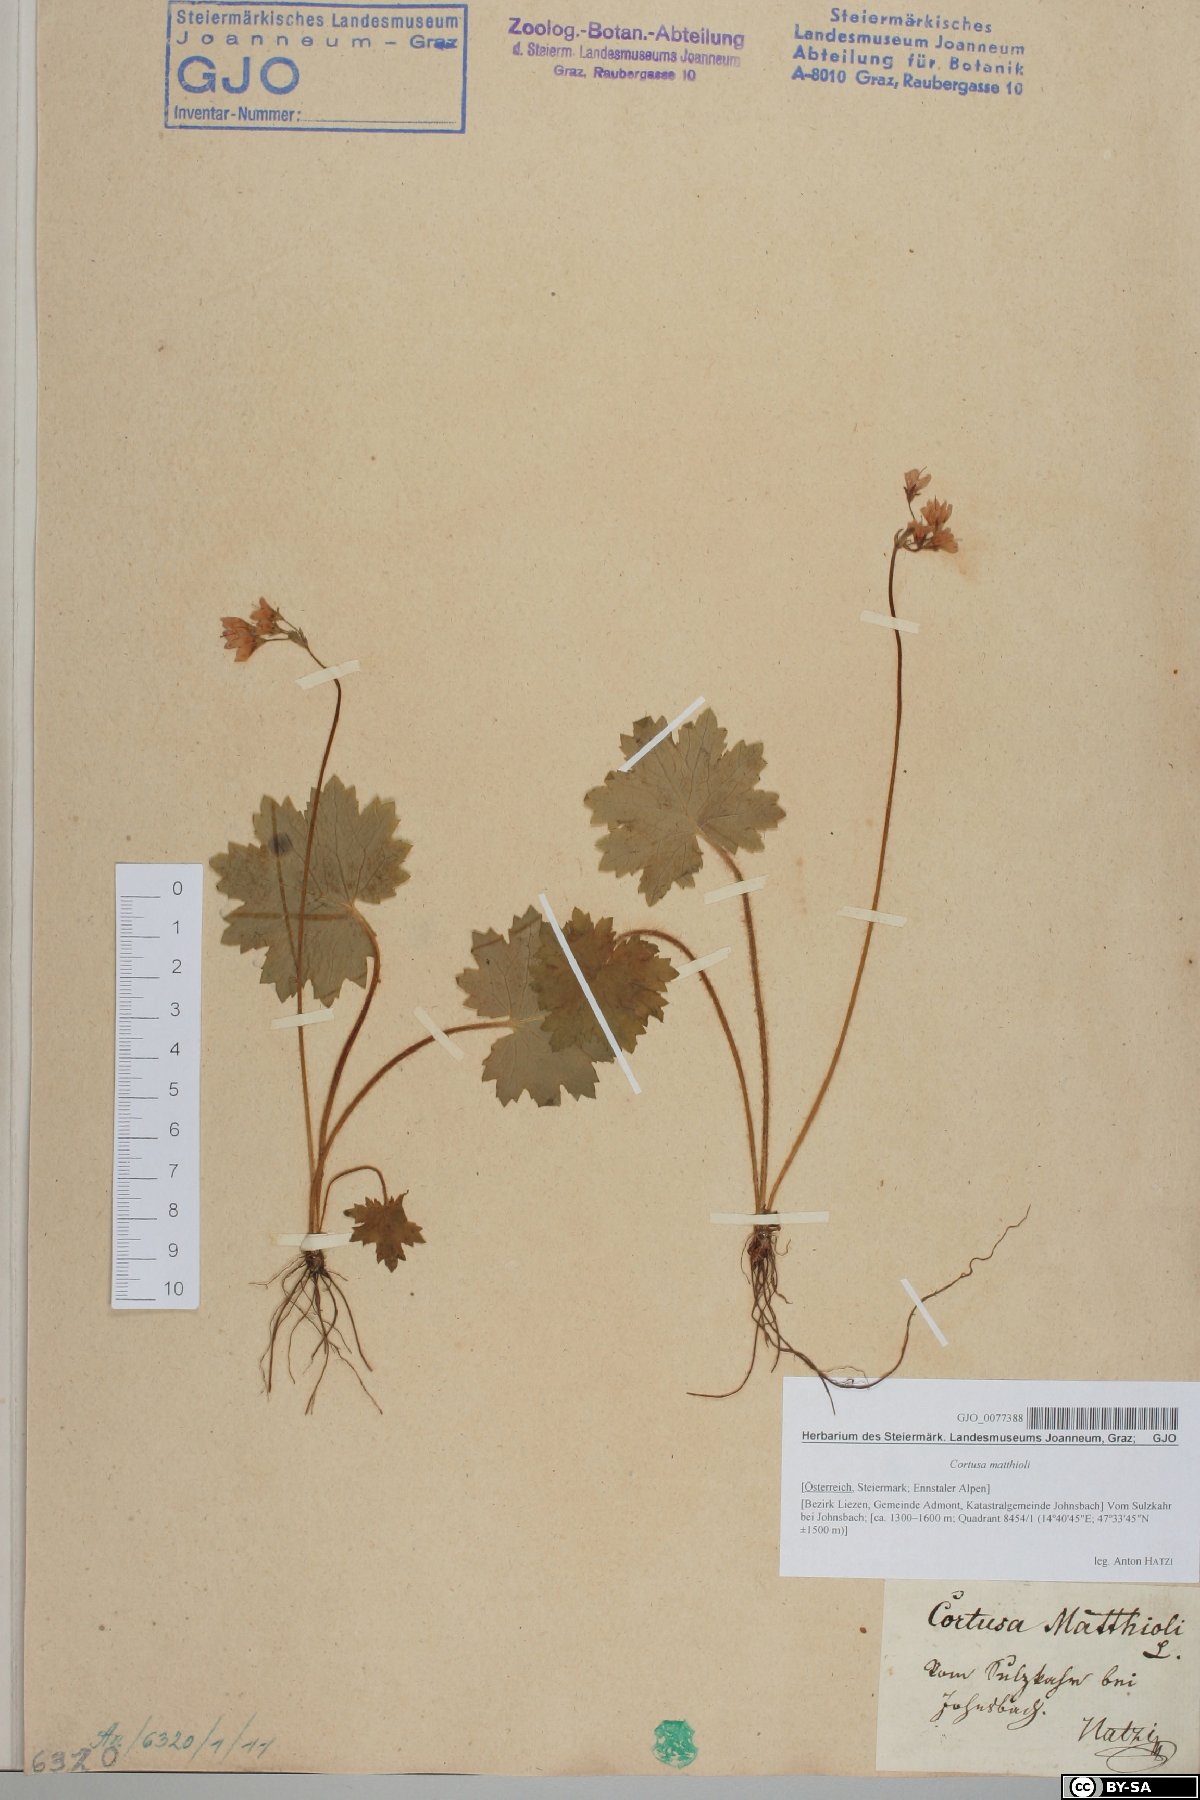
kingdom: Plantae
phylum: Tracheophyta
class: Magnoliopsida
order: Ericales
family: Primulaceae
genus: Primula
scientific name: Primula matthioli
